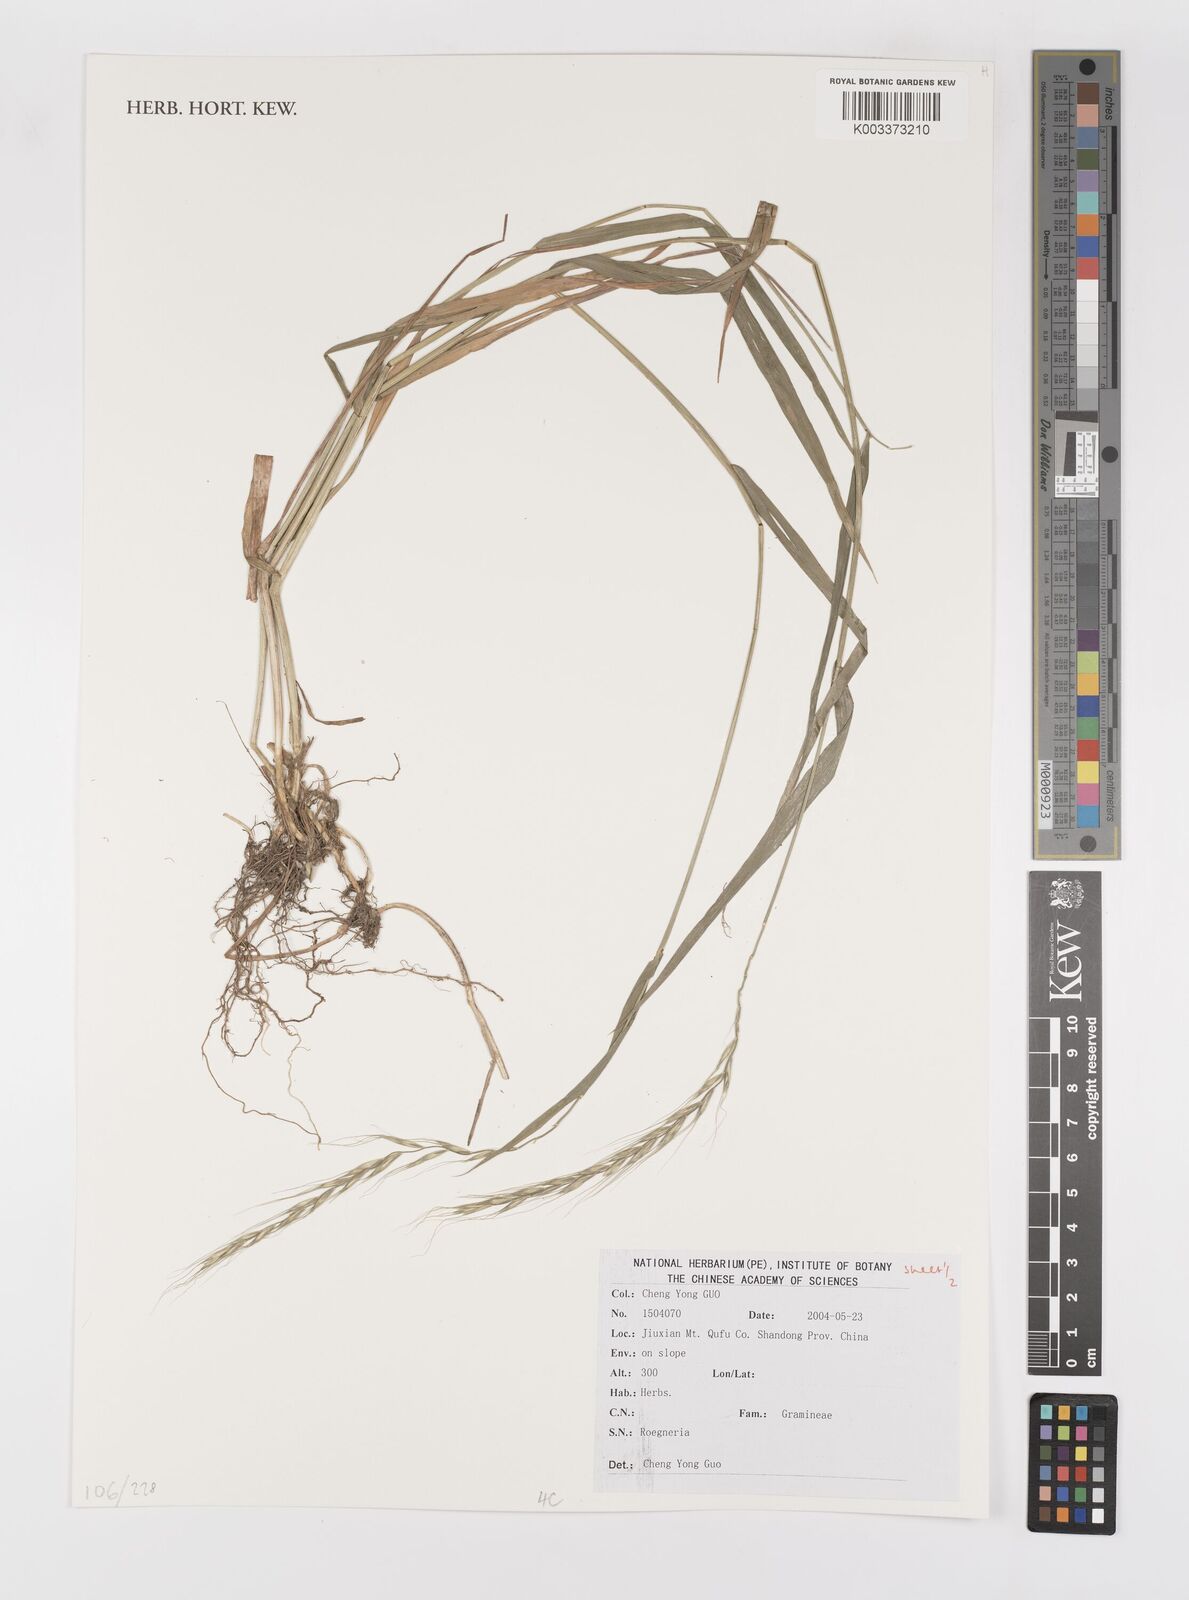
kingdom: Plantae
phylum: Tracheophyta
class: Liliopsida
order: Poales
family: Poaceae
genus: Elymus
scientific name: Elymus
